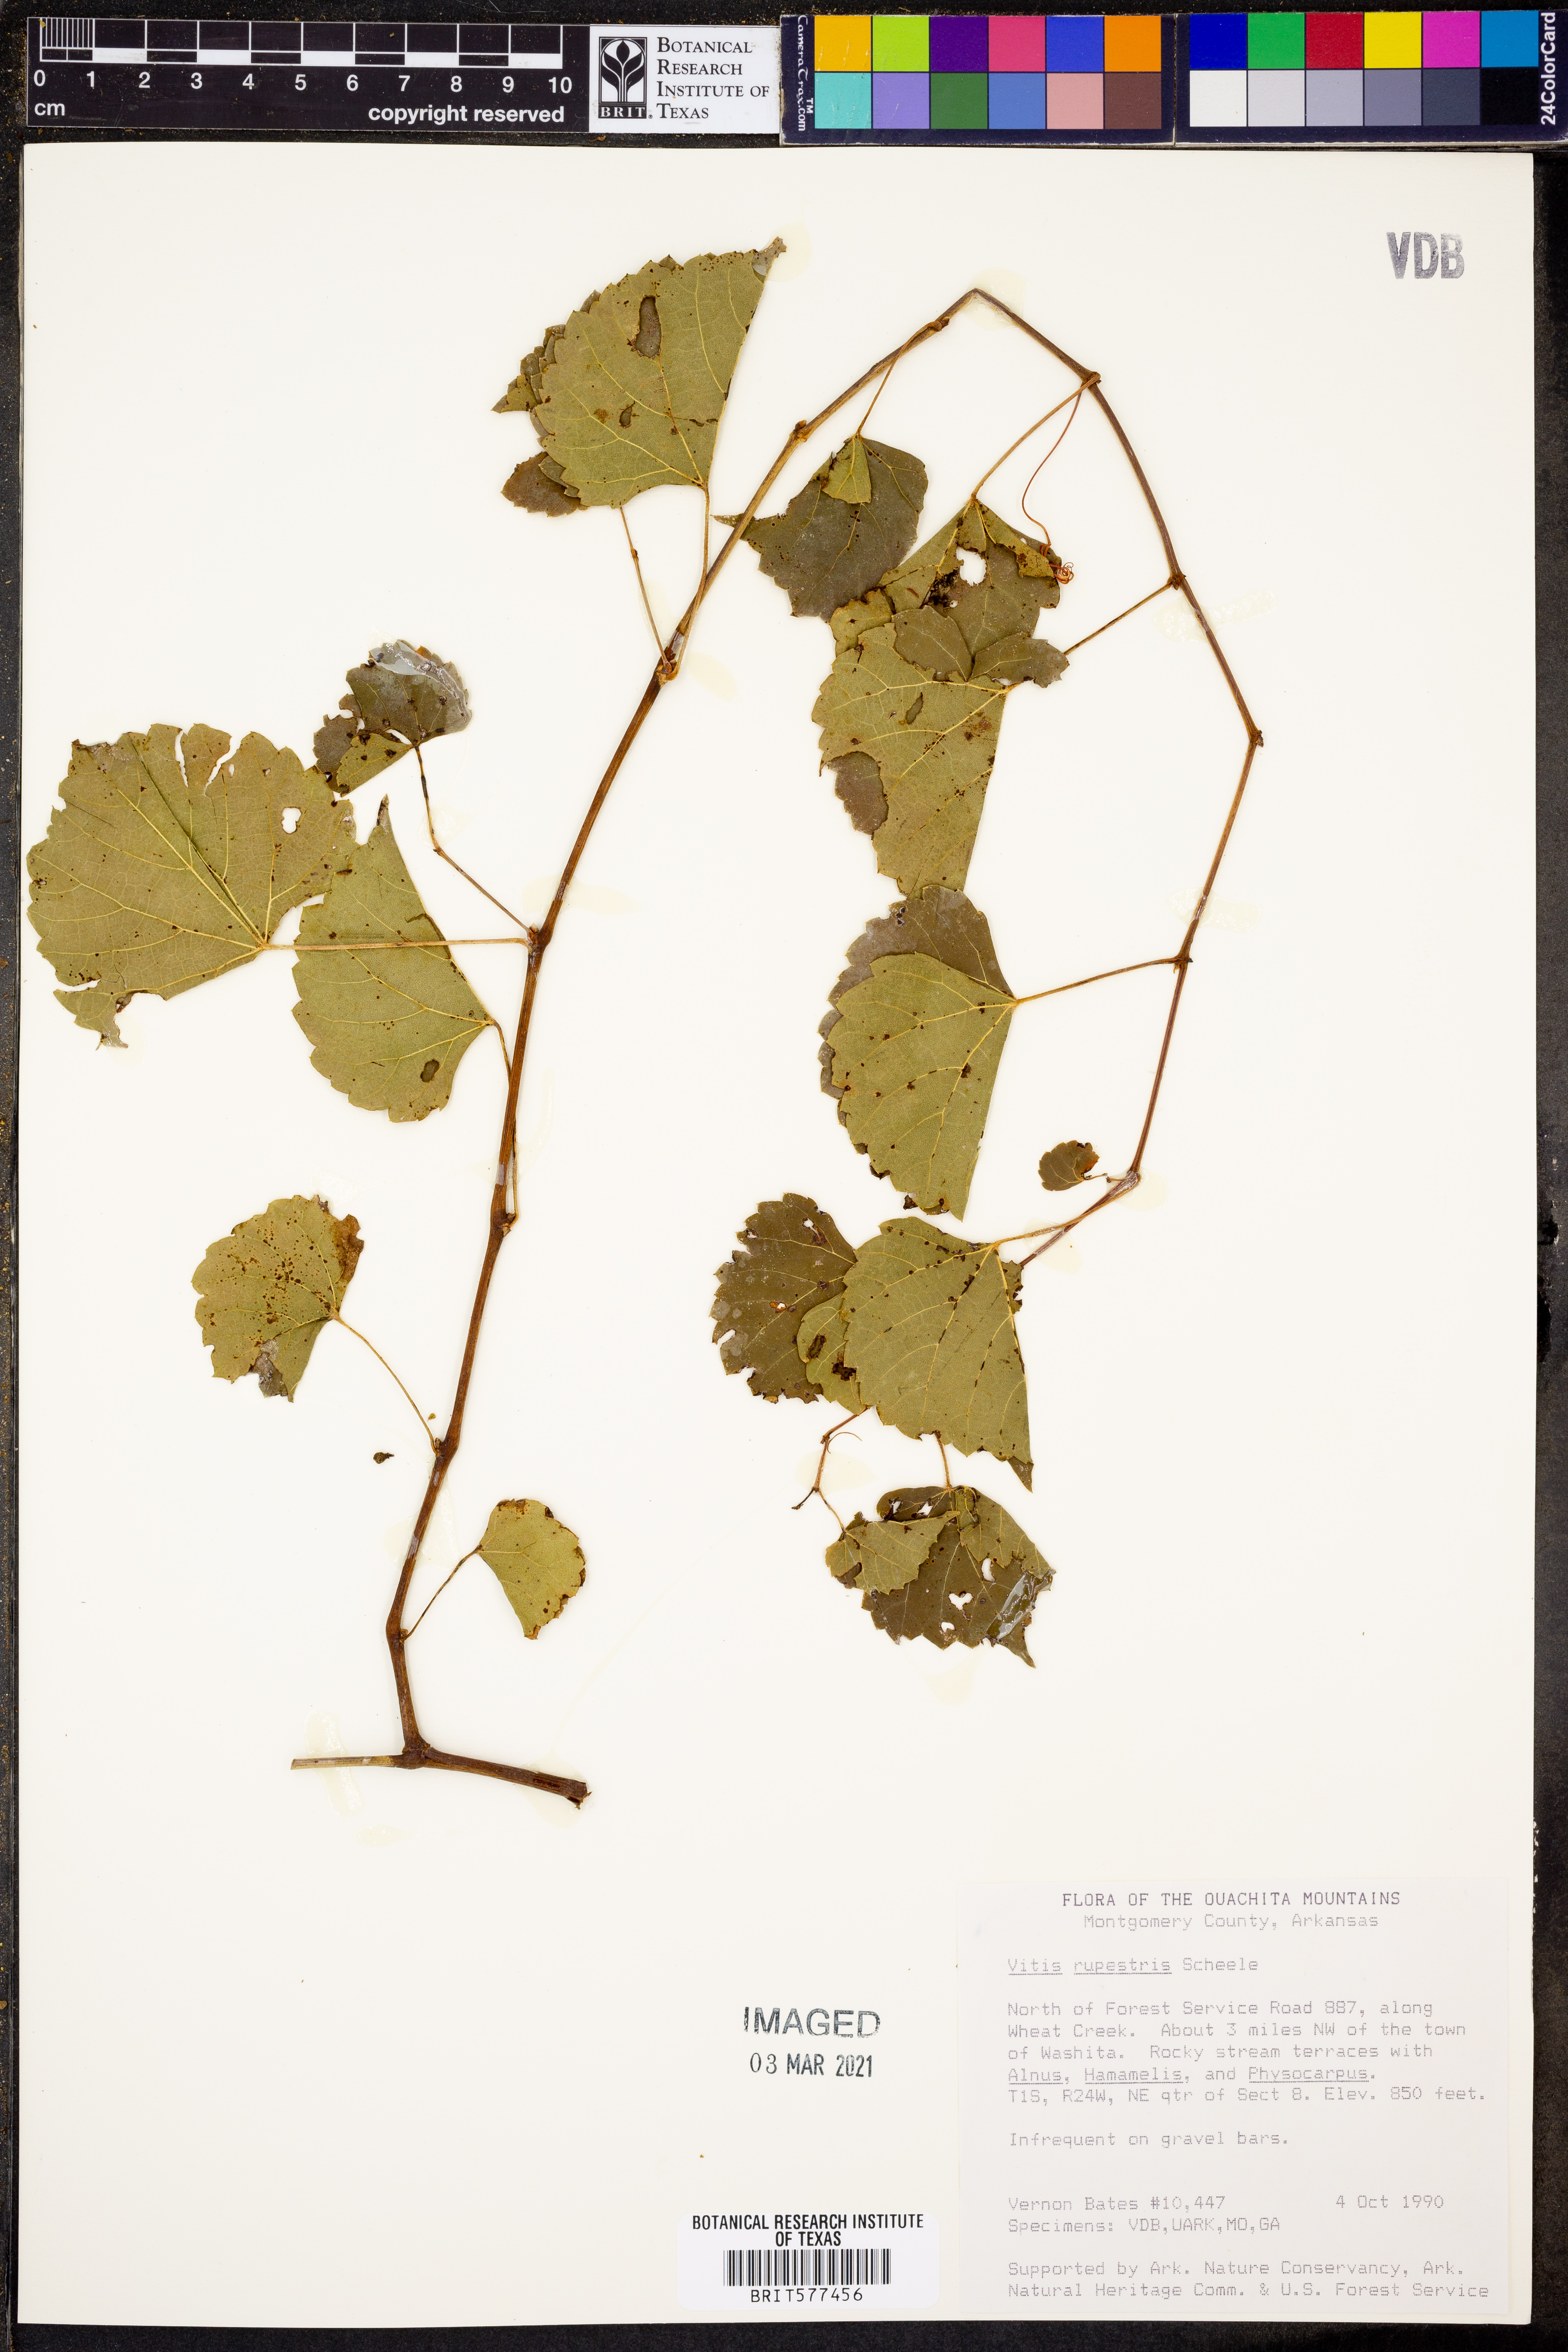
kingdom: Plantae
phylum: Tracheophyta
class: Magnoliopsida
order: Vitales
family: Vitaceae
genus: Vitis
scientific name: Vitis rupestris
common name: Rock grape
